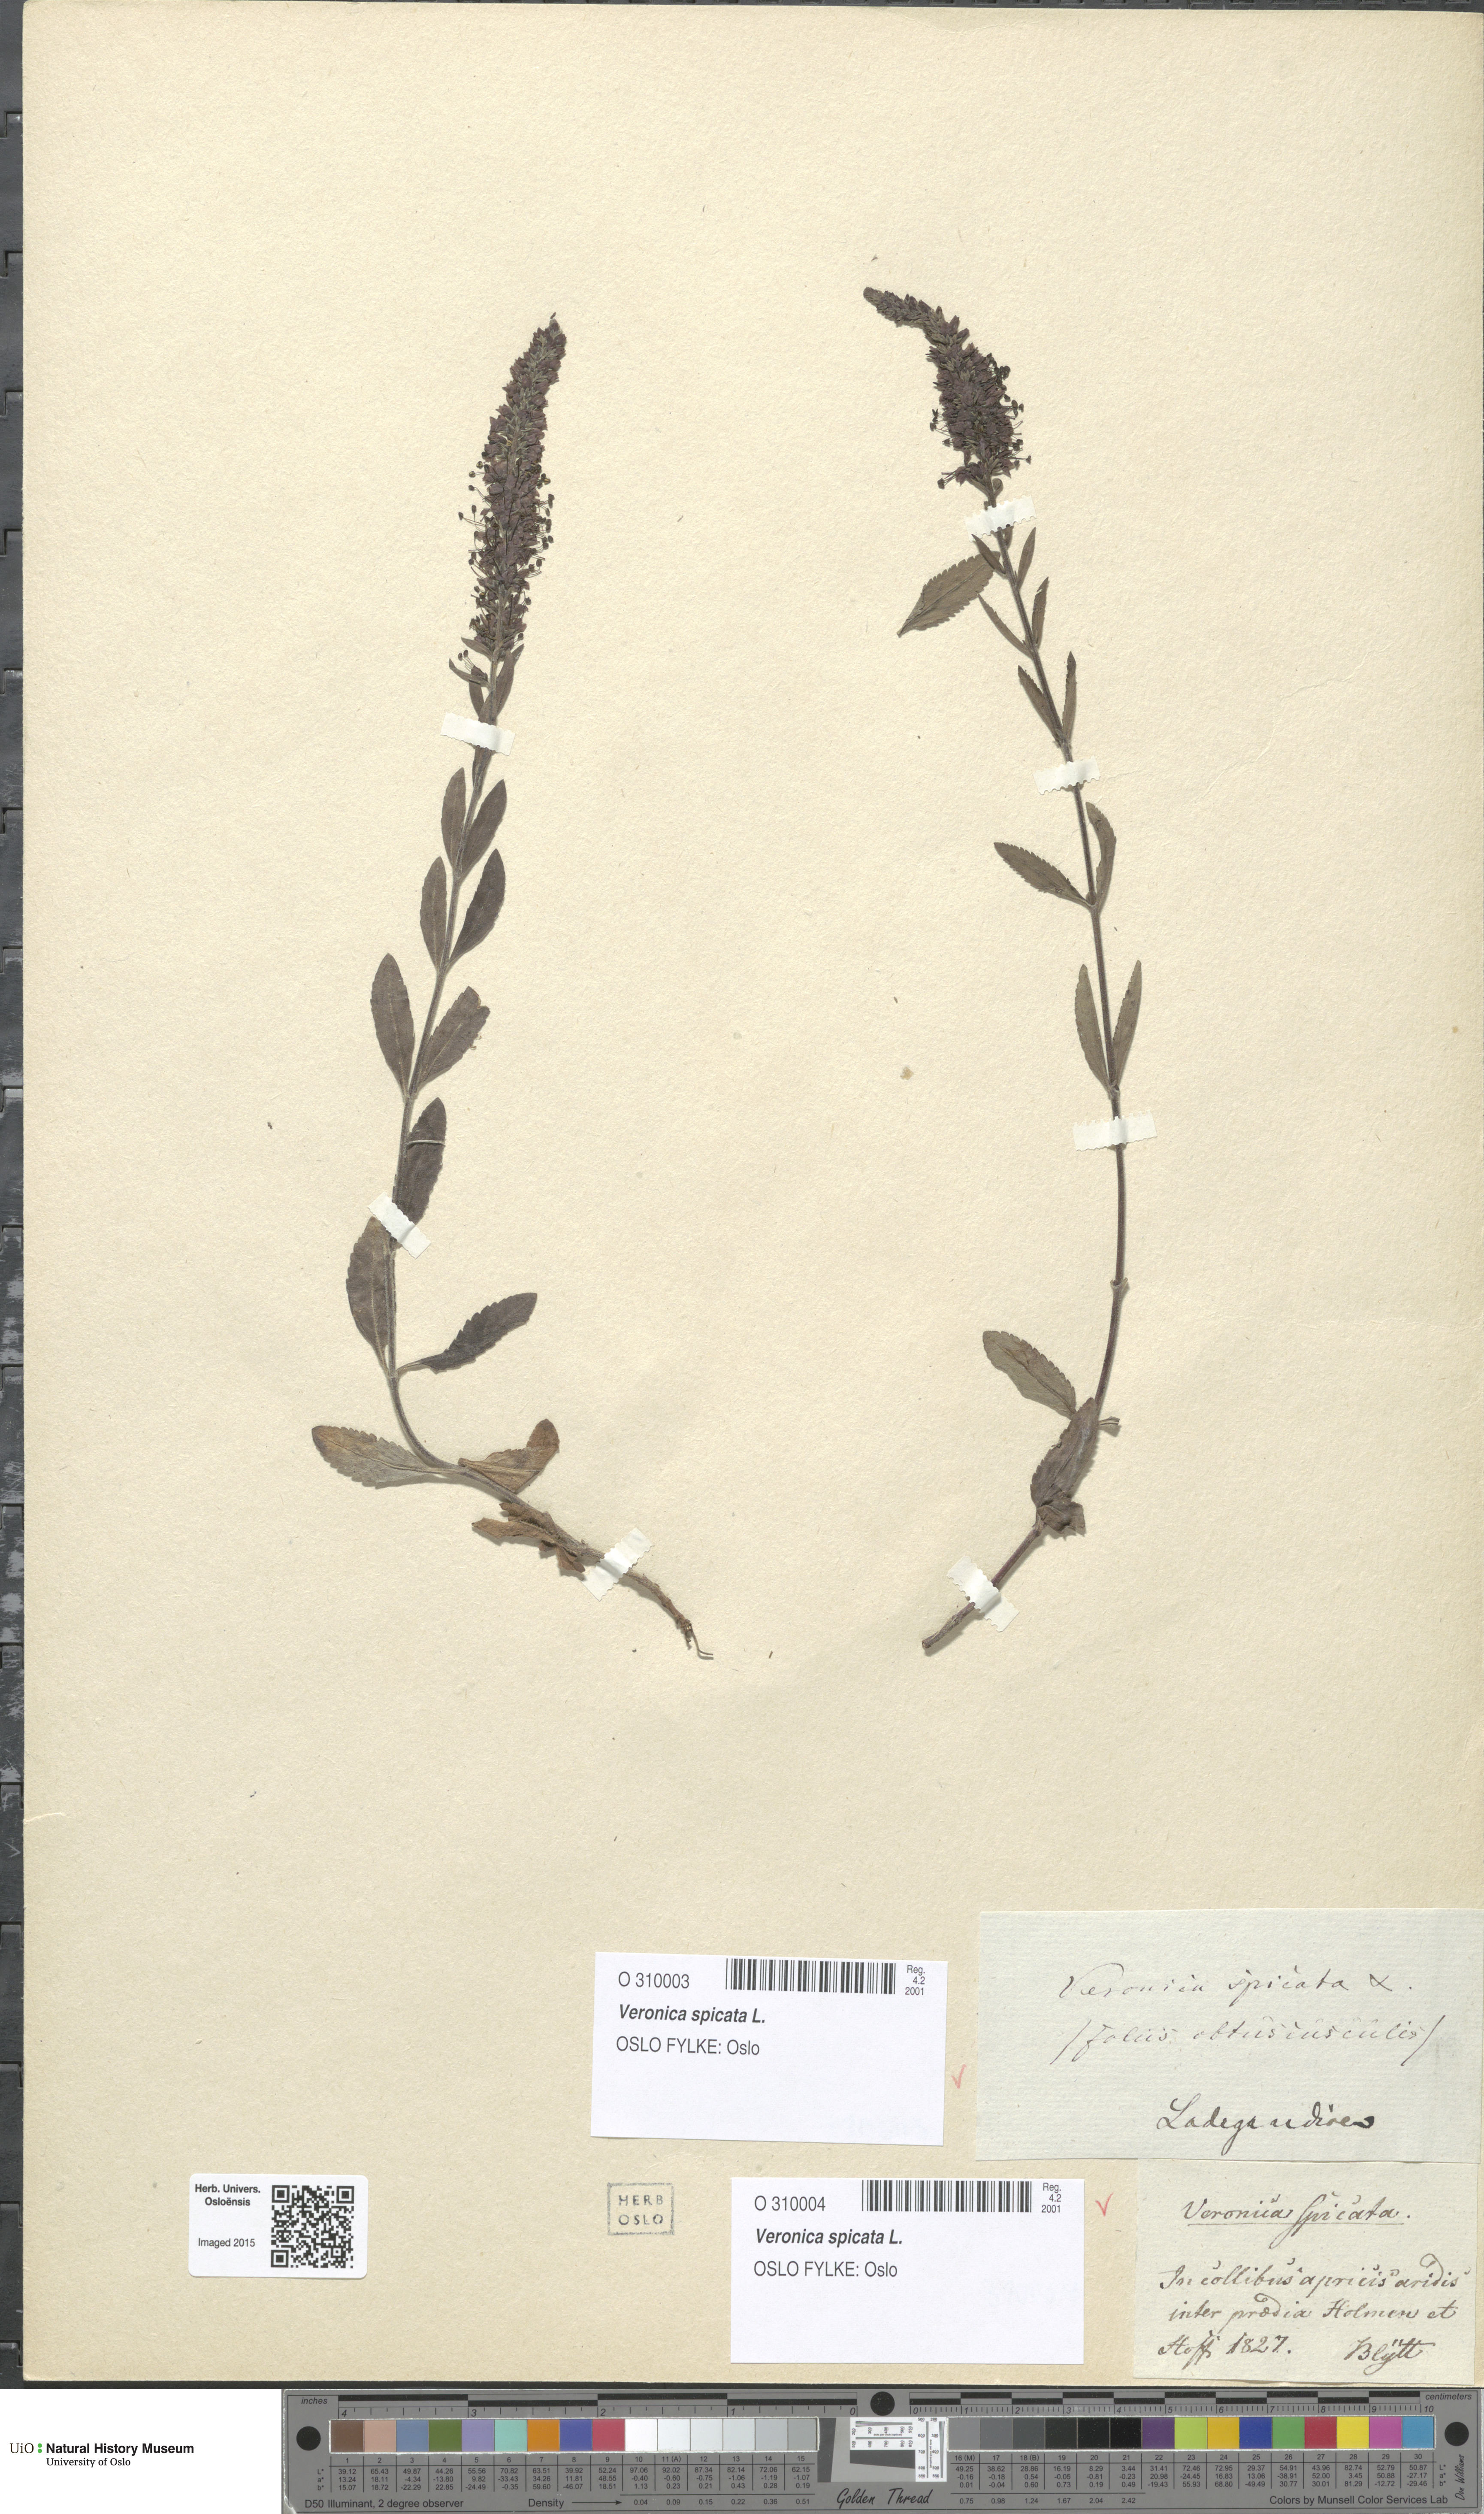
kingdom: Plantae
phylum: Tracheophyta
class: Magnoliopsida
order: Lamiales
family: Plantaginaceae
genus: Veronica
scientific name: Veronica spicata
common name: Spiked speedwell
